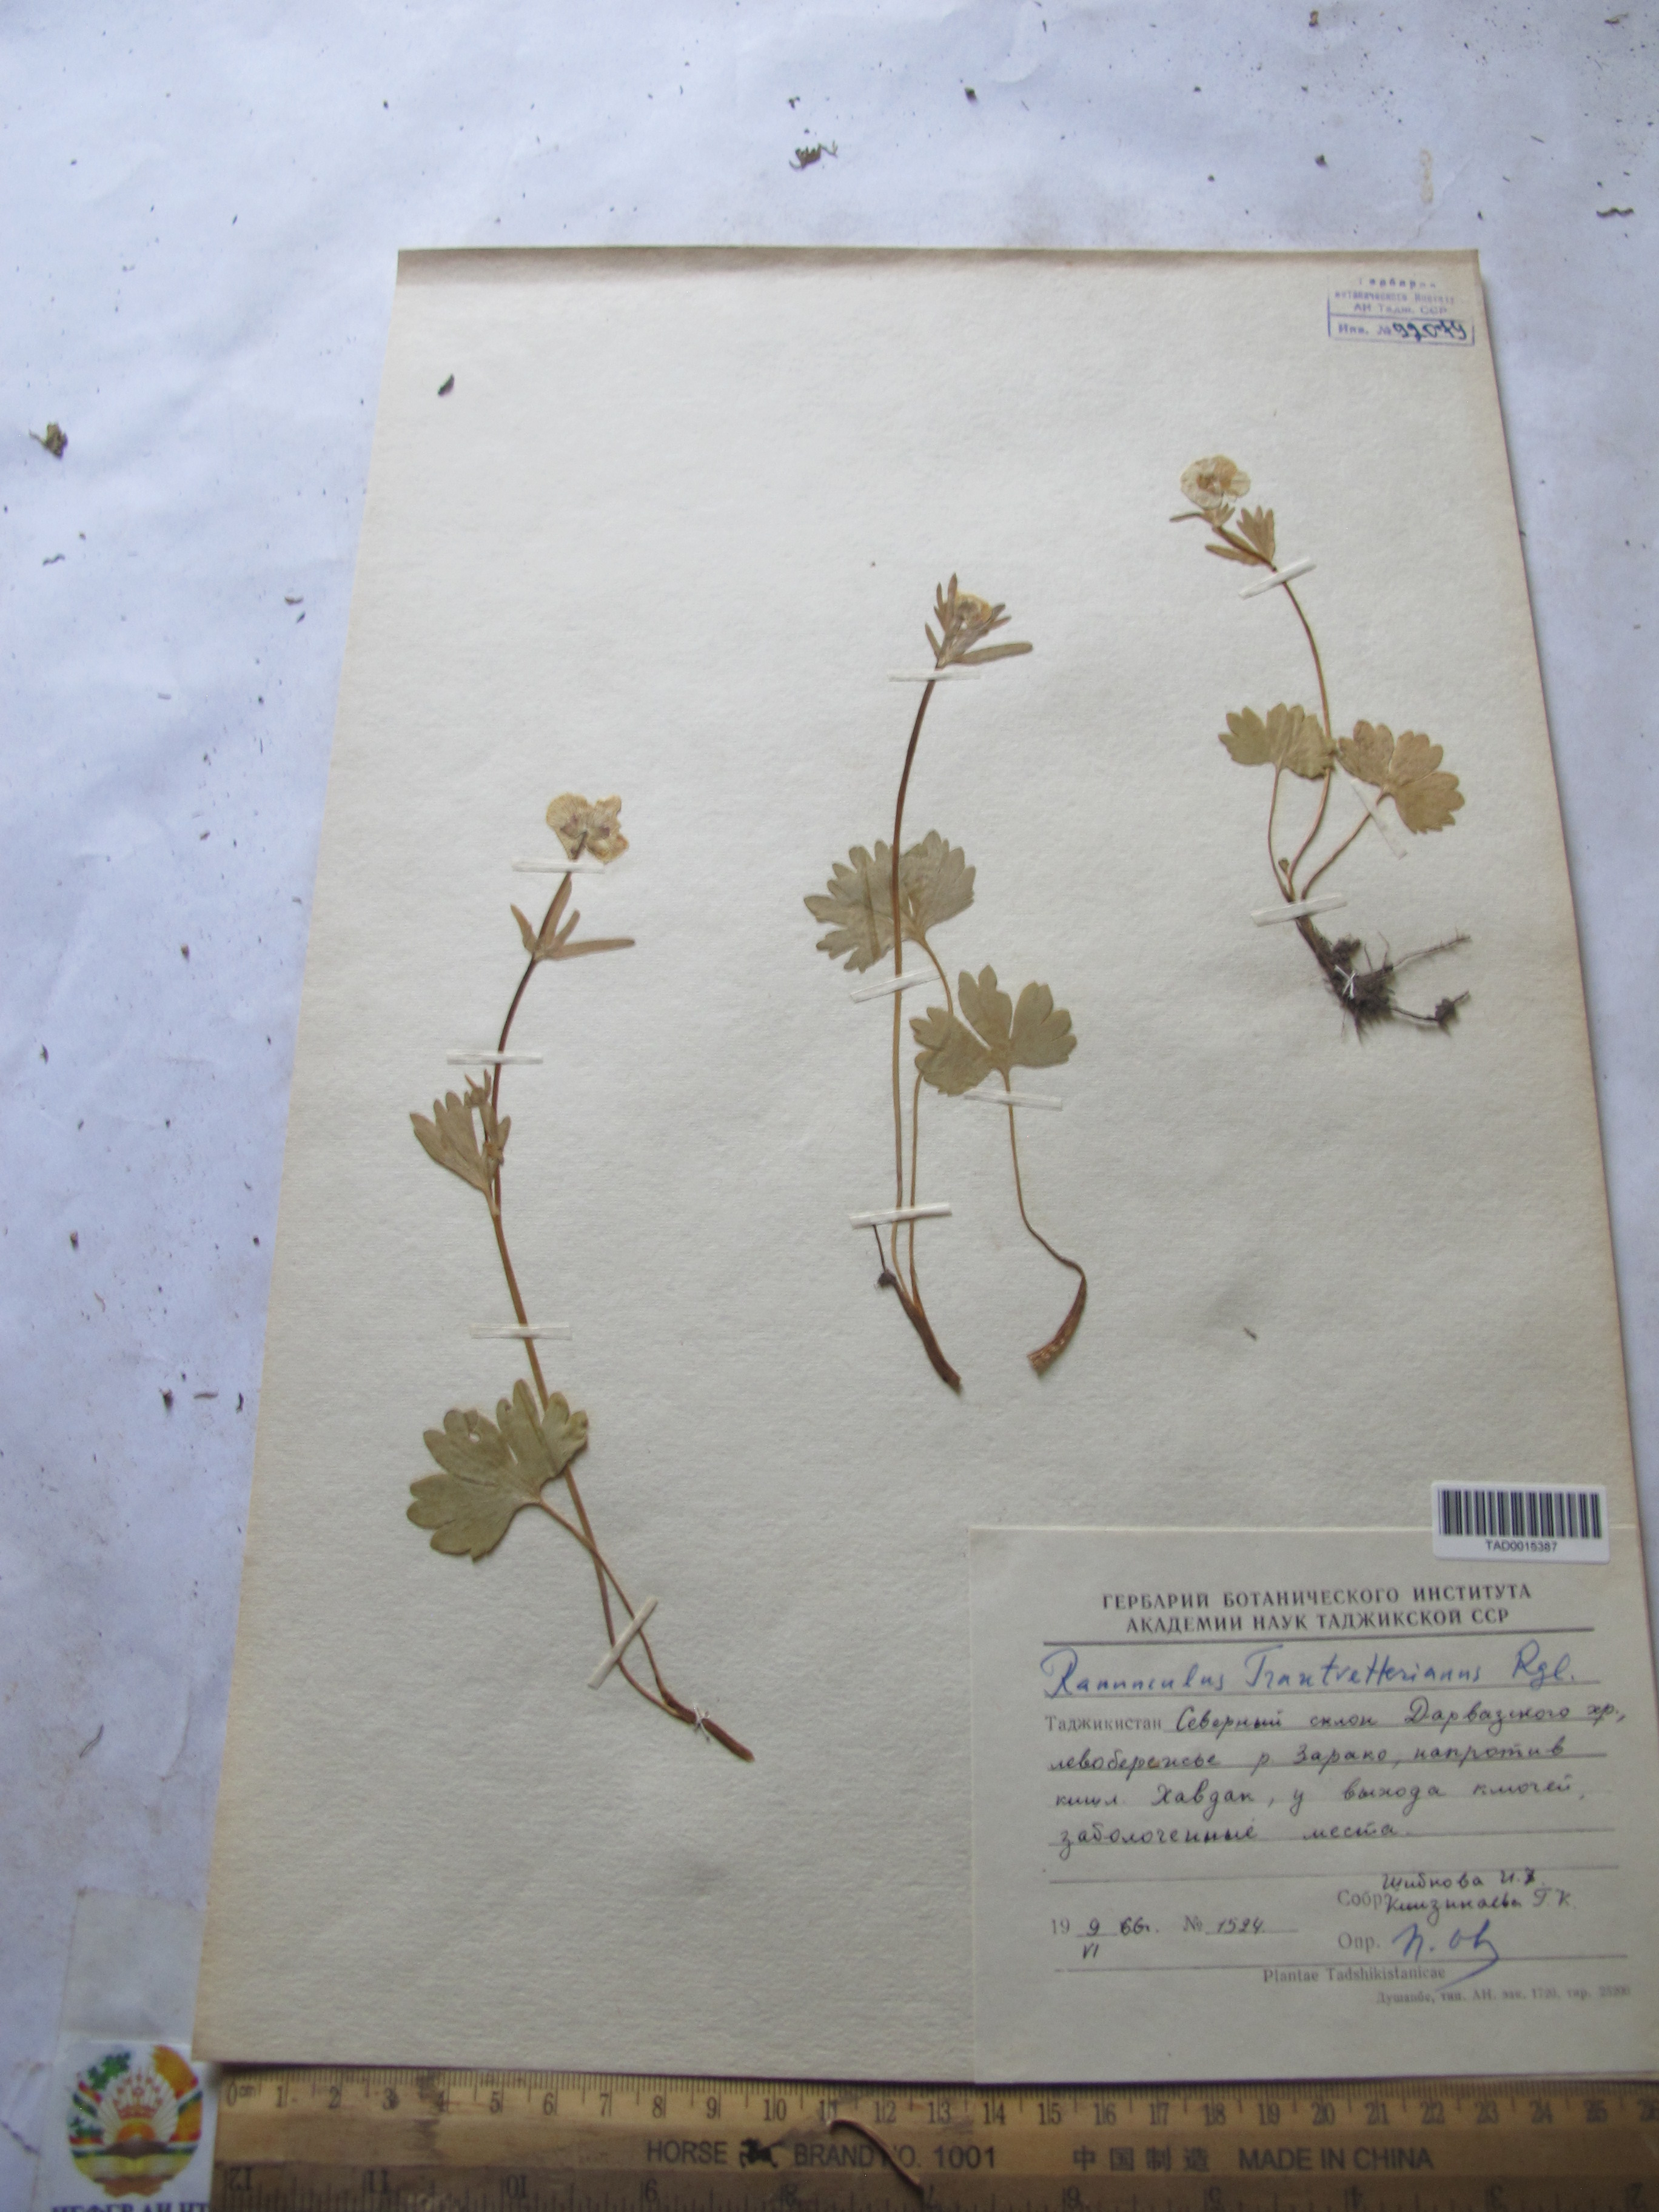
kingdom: Plantae
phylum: Tracheophyta
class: Magnoliopsida
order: Ranunculales
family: Ranunculaceae
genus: Ranunculus
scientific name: Ranunculus songaricus
